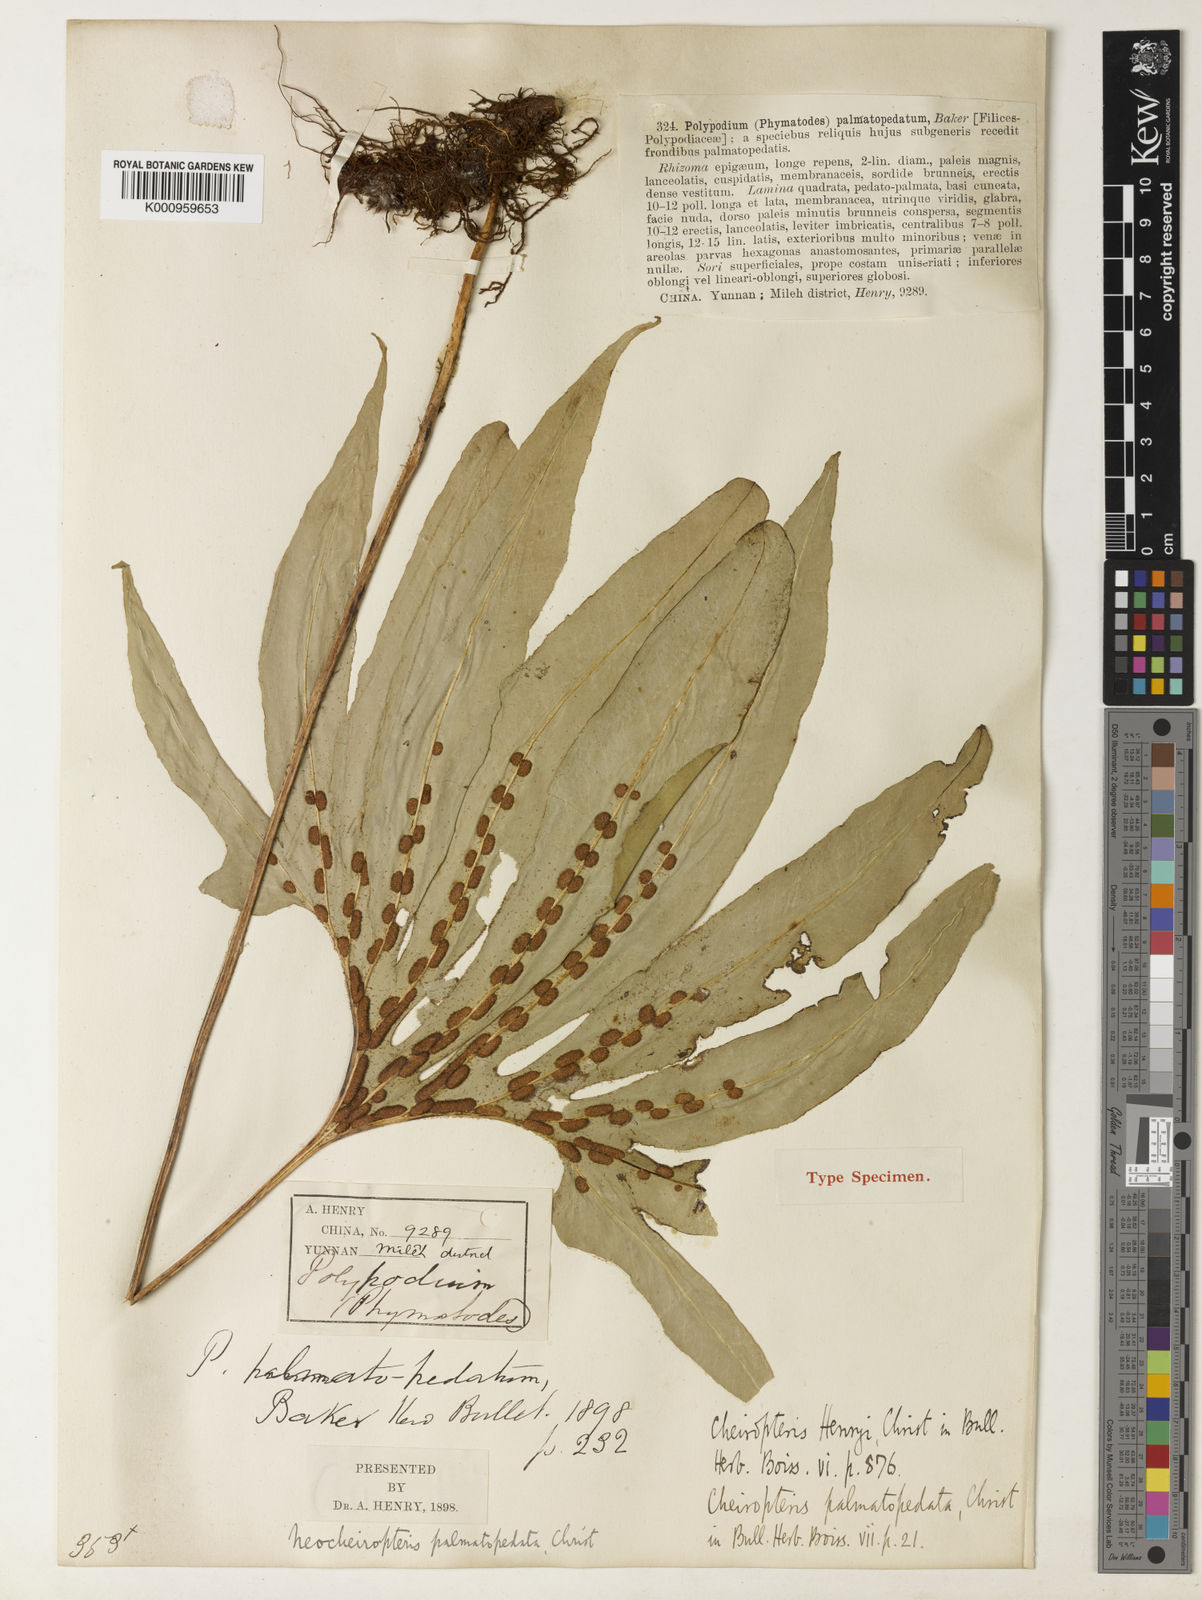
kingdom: Plantae
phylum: Tracheophyta
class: Polypodiopsida
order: Polypodiales
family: Polypodiaceae
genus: Lepisorus
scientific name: Lepisorus palmatopedatus
